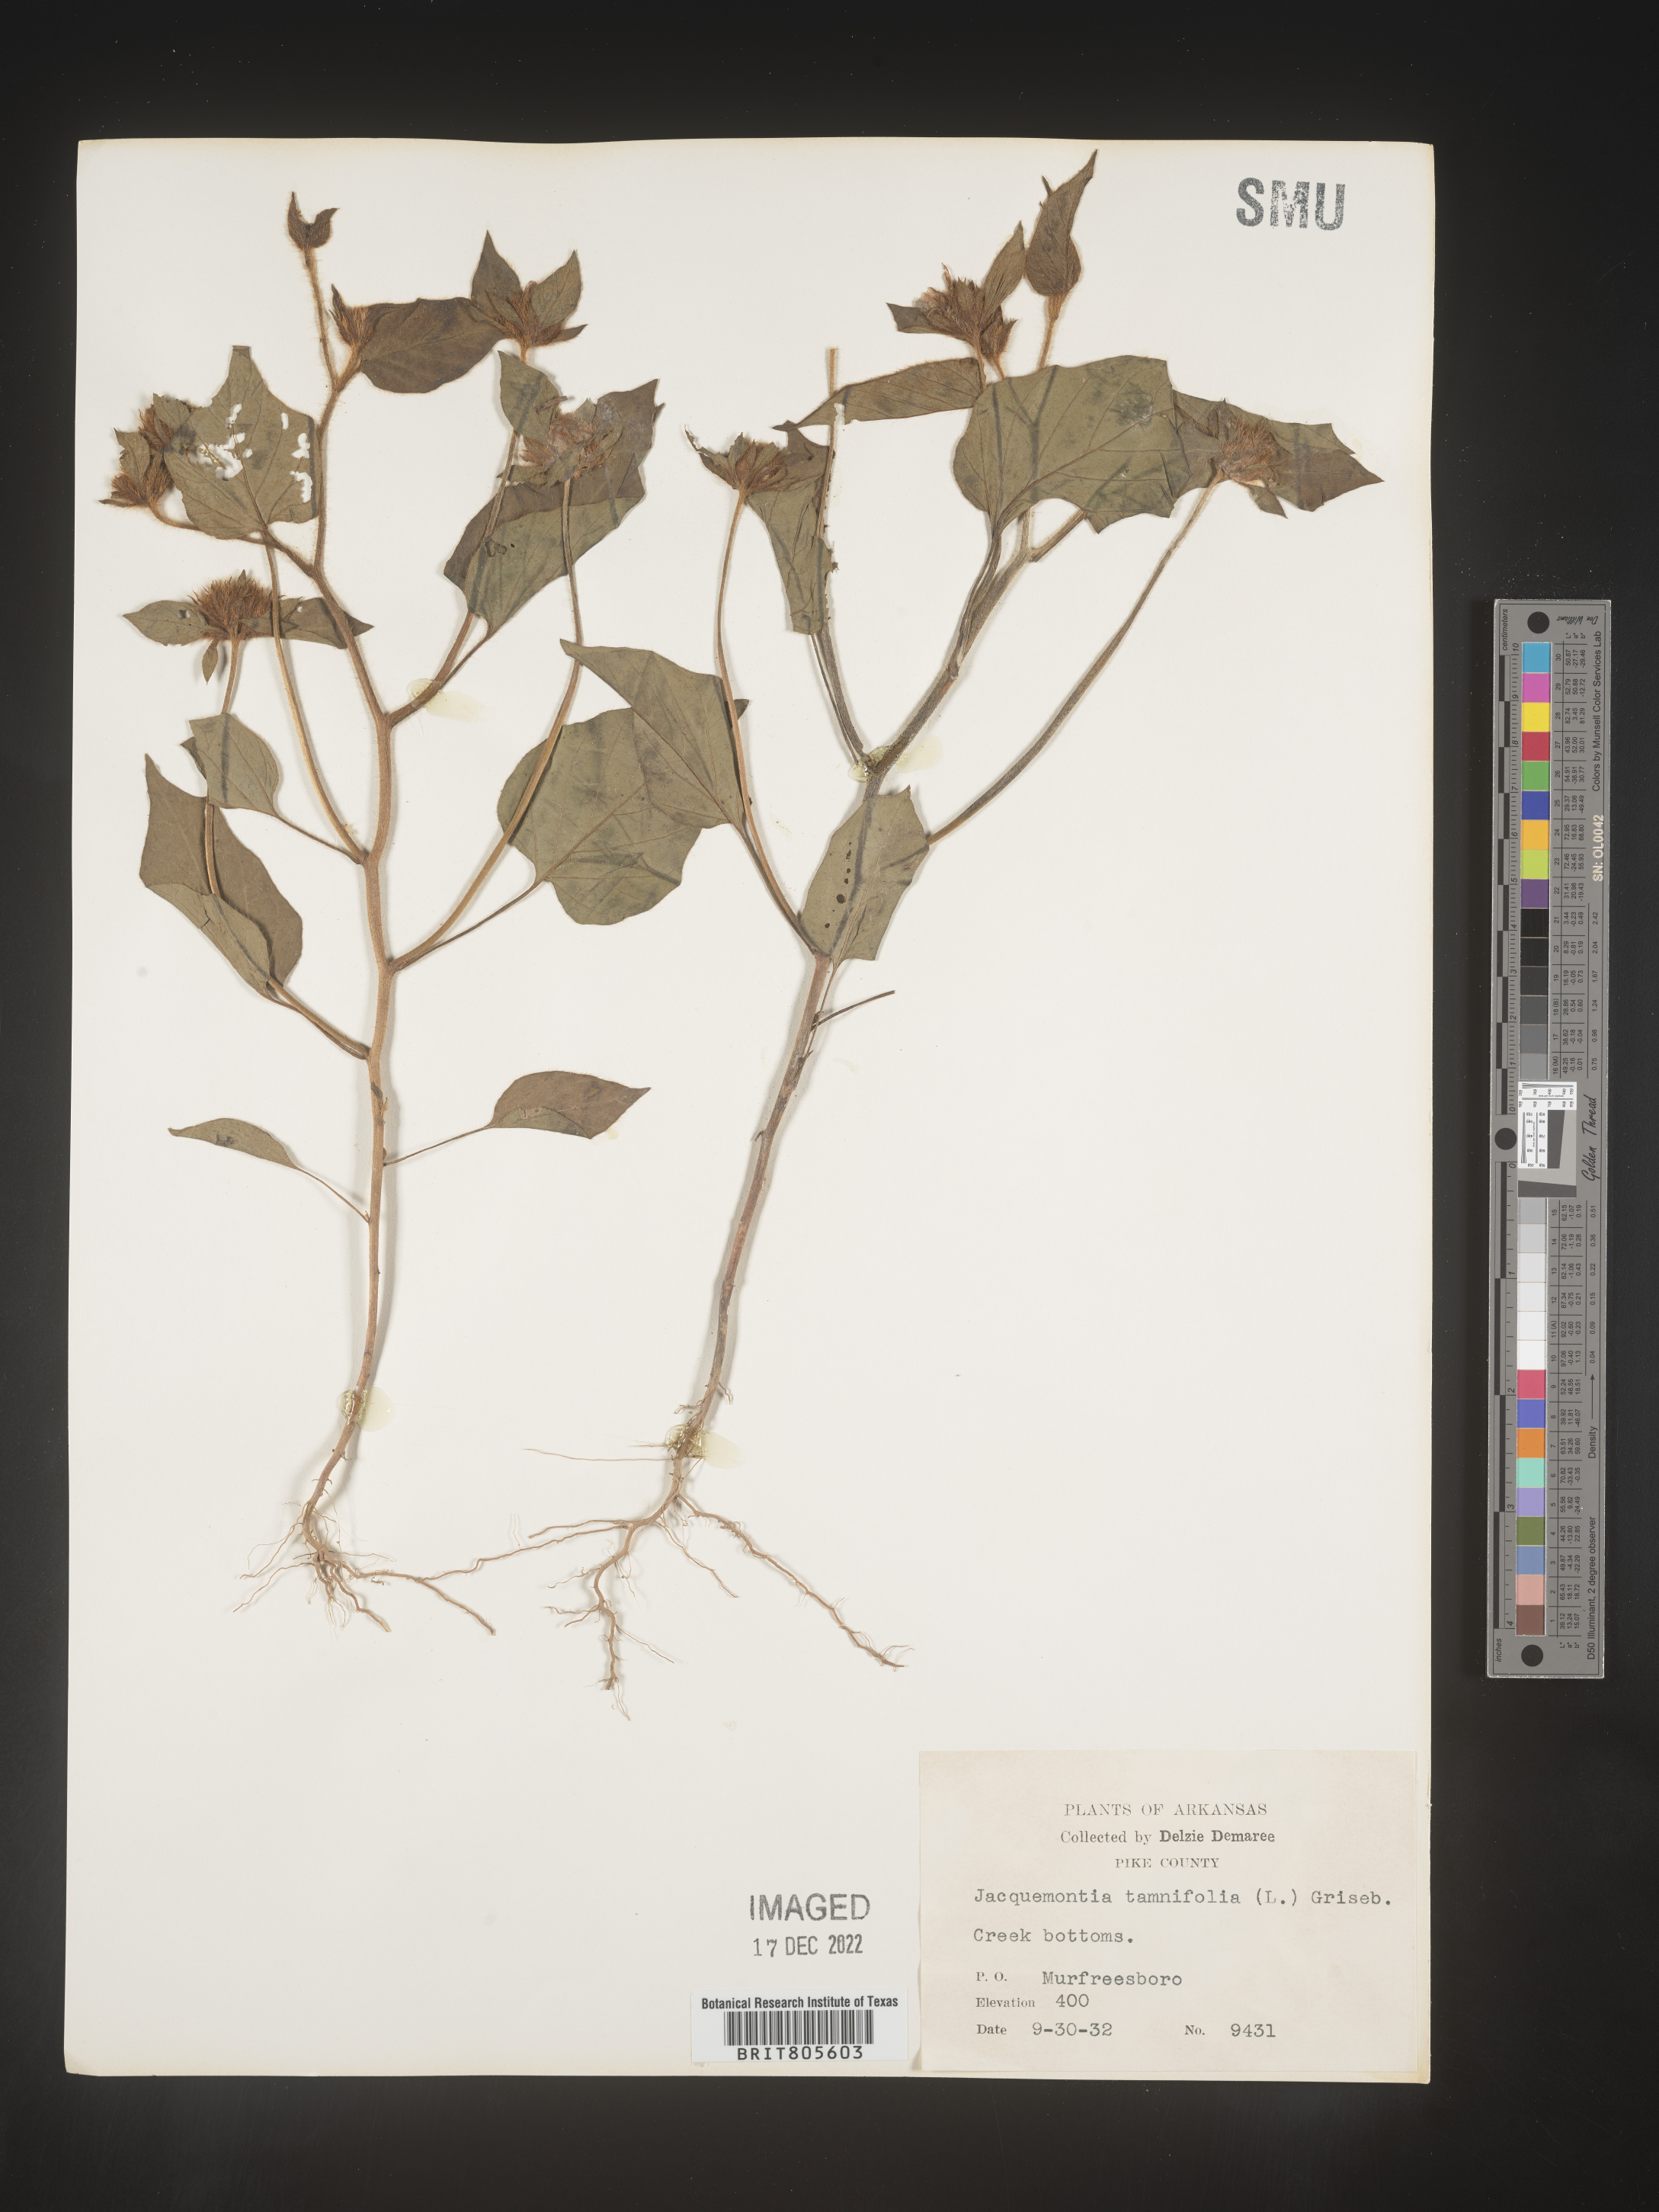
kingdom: Plantae
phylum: Tracheophyta
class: Magnoliopsida
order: Solanales
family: Convolvulaceae
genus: Jacquemontia
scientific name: Jacquemontia tamnifolia
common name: Hairy clustervine
